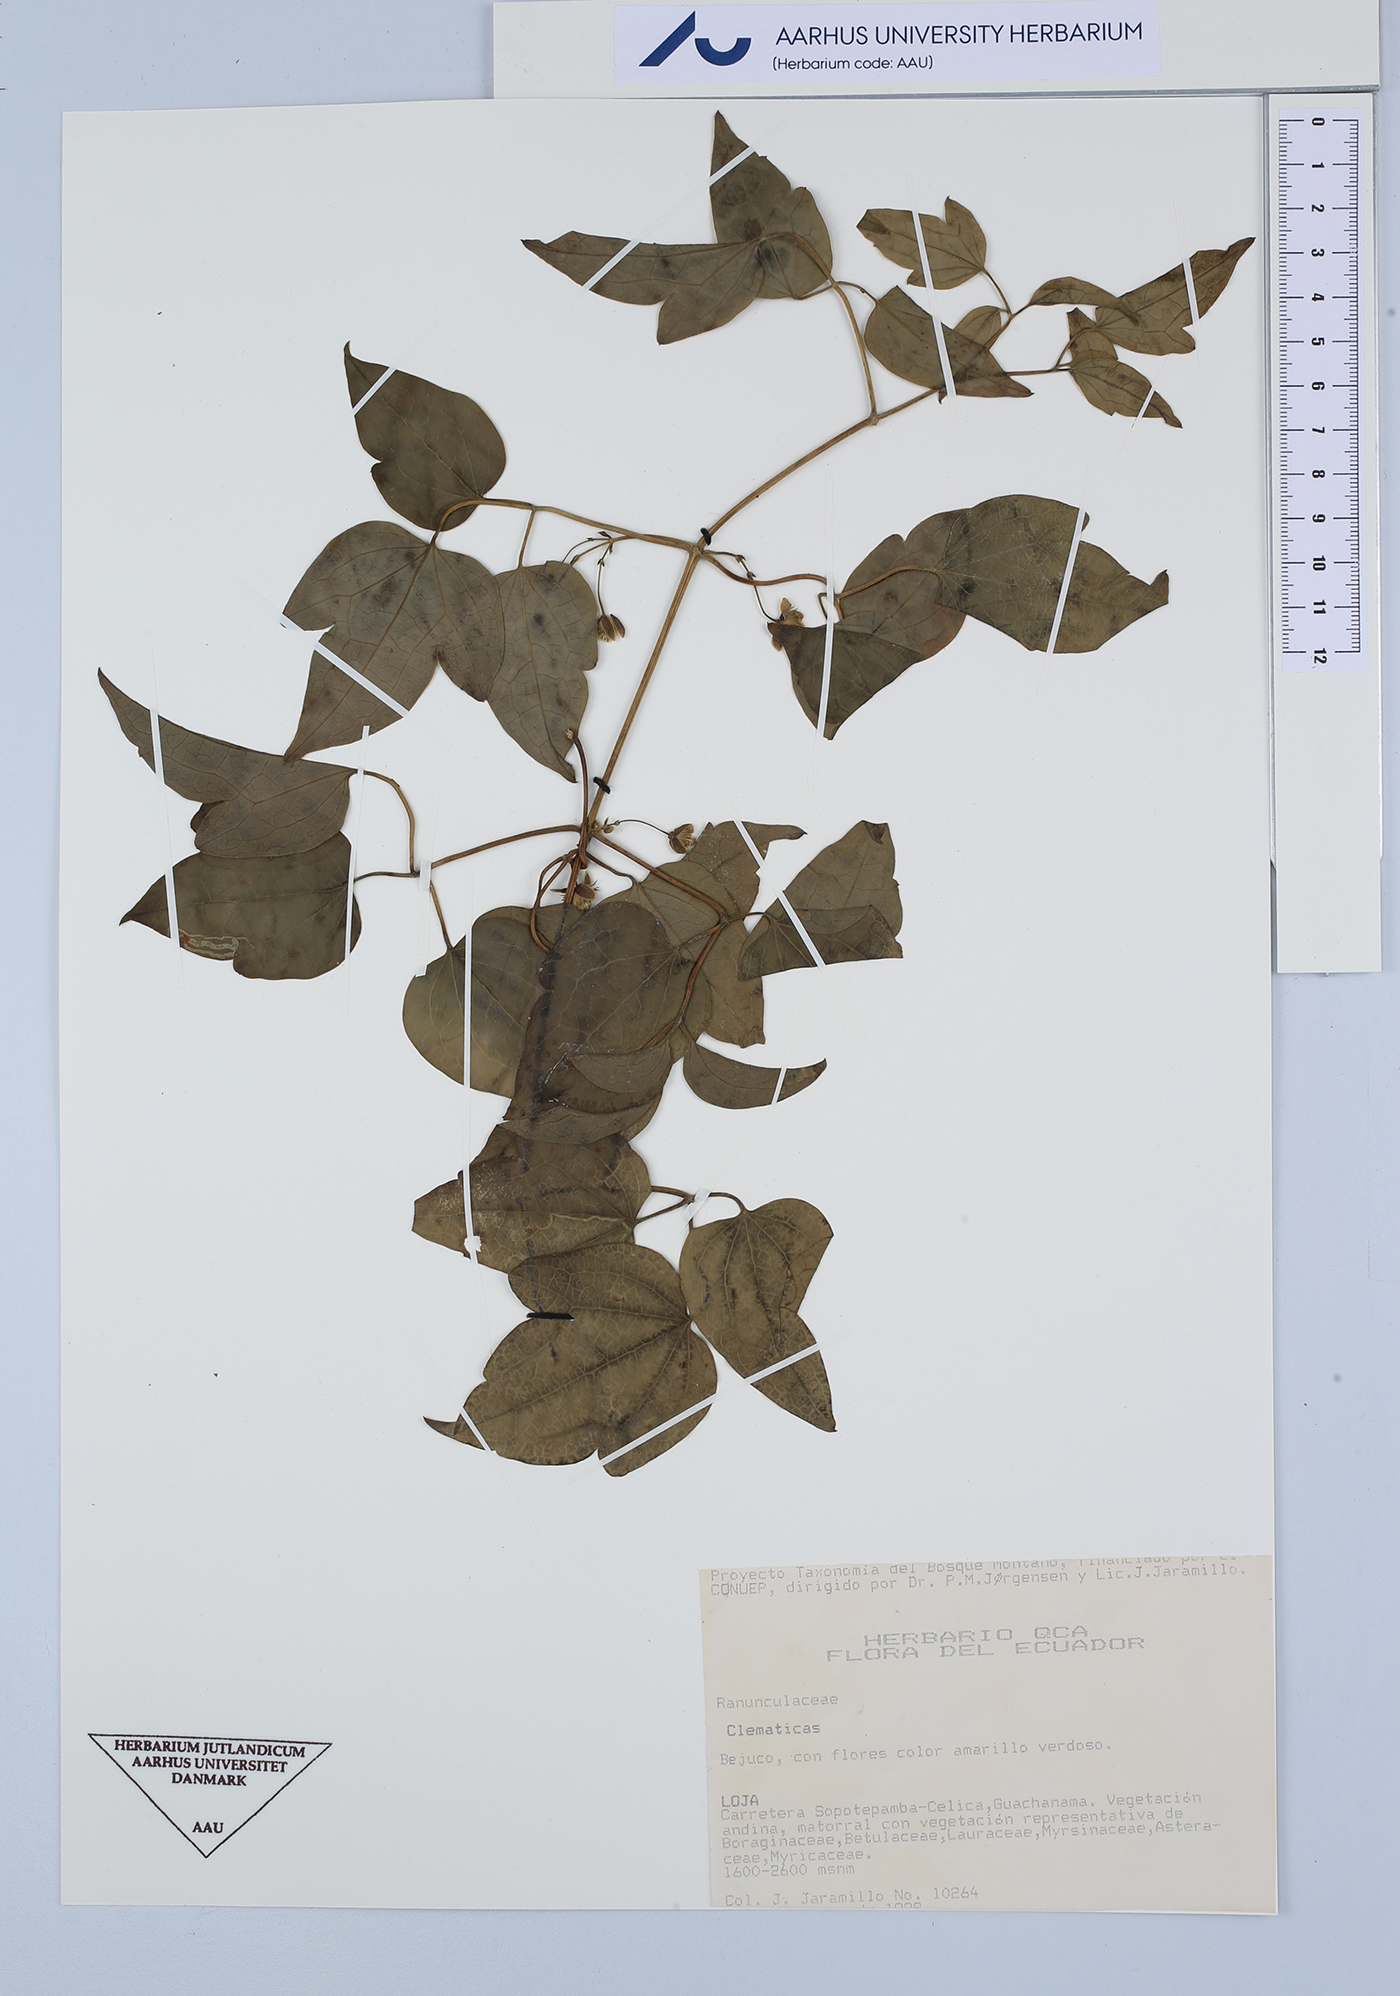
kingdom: Plantae
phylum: Tracheophyta
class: Magnoliopsida
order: Ranunculales
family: Ranunculaceae
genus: Clematis
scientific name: Clematis
